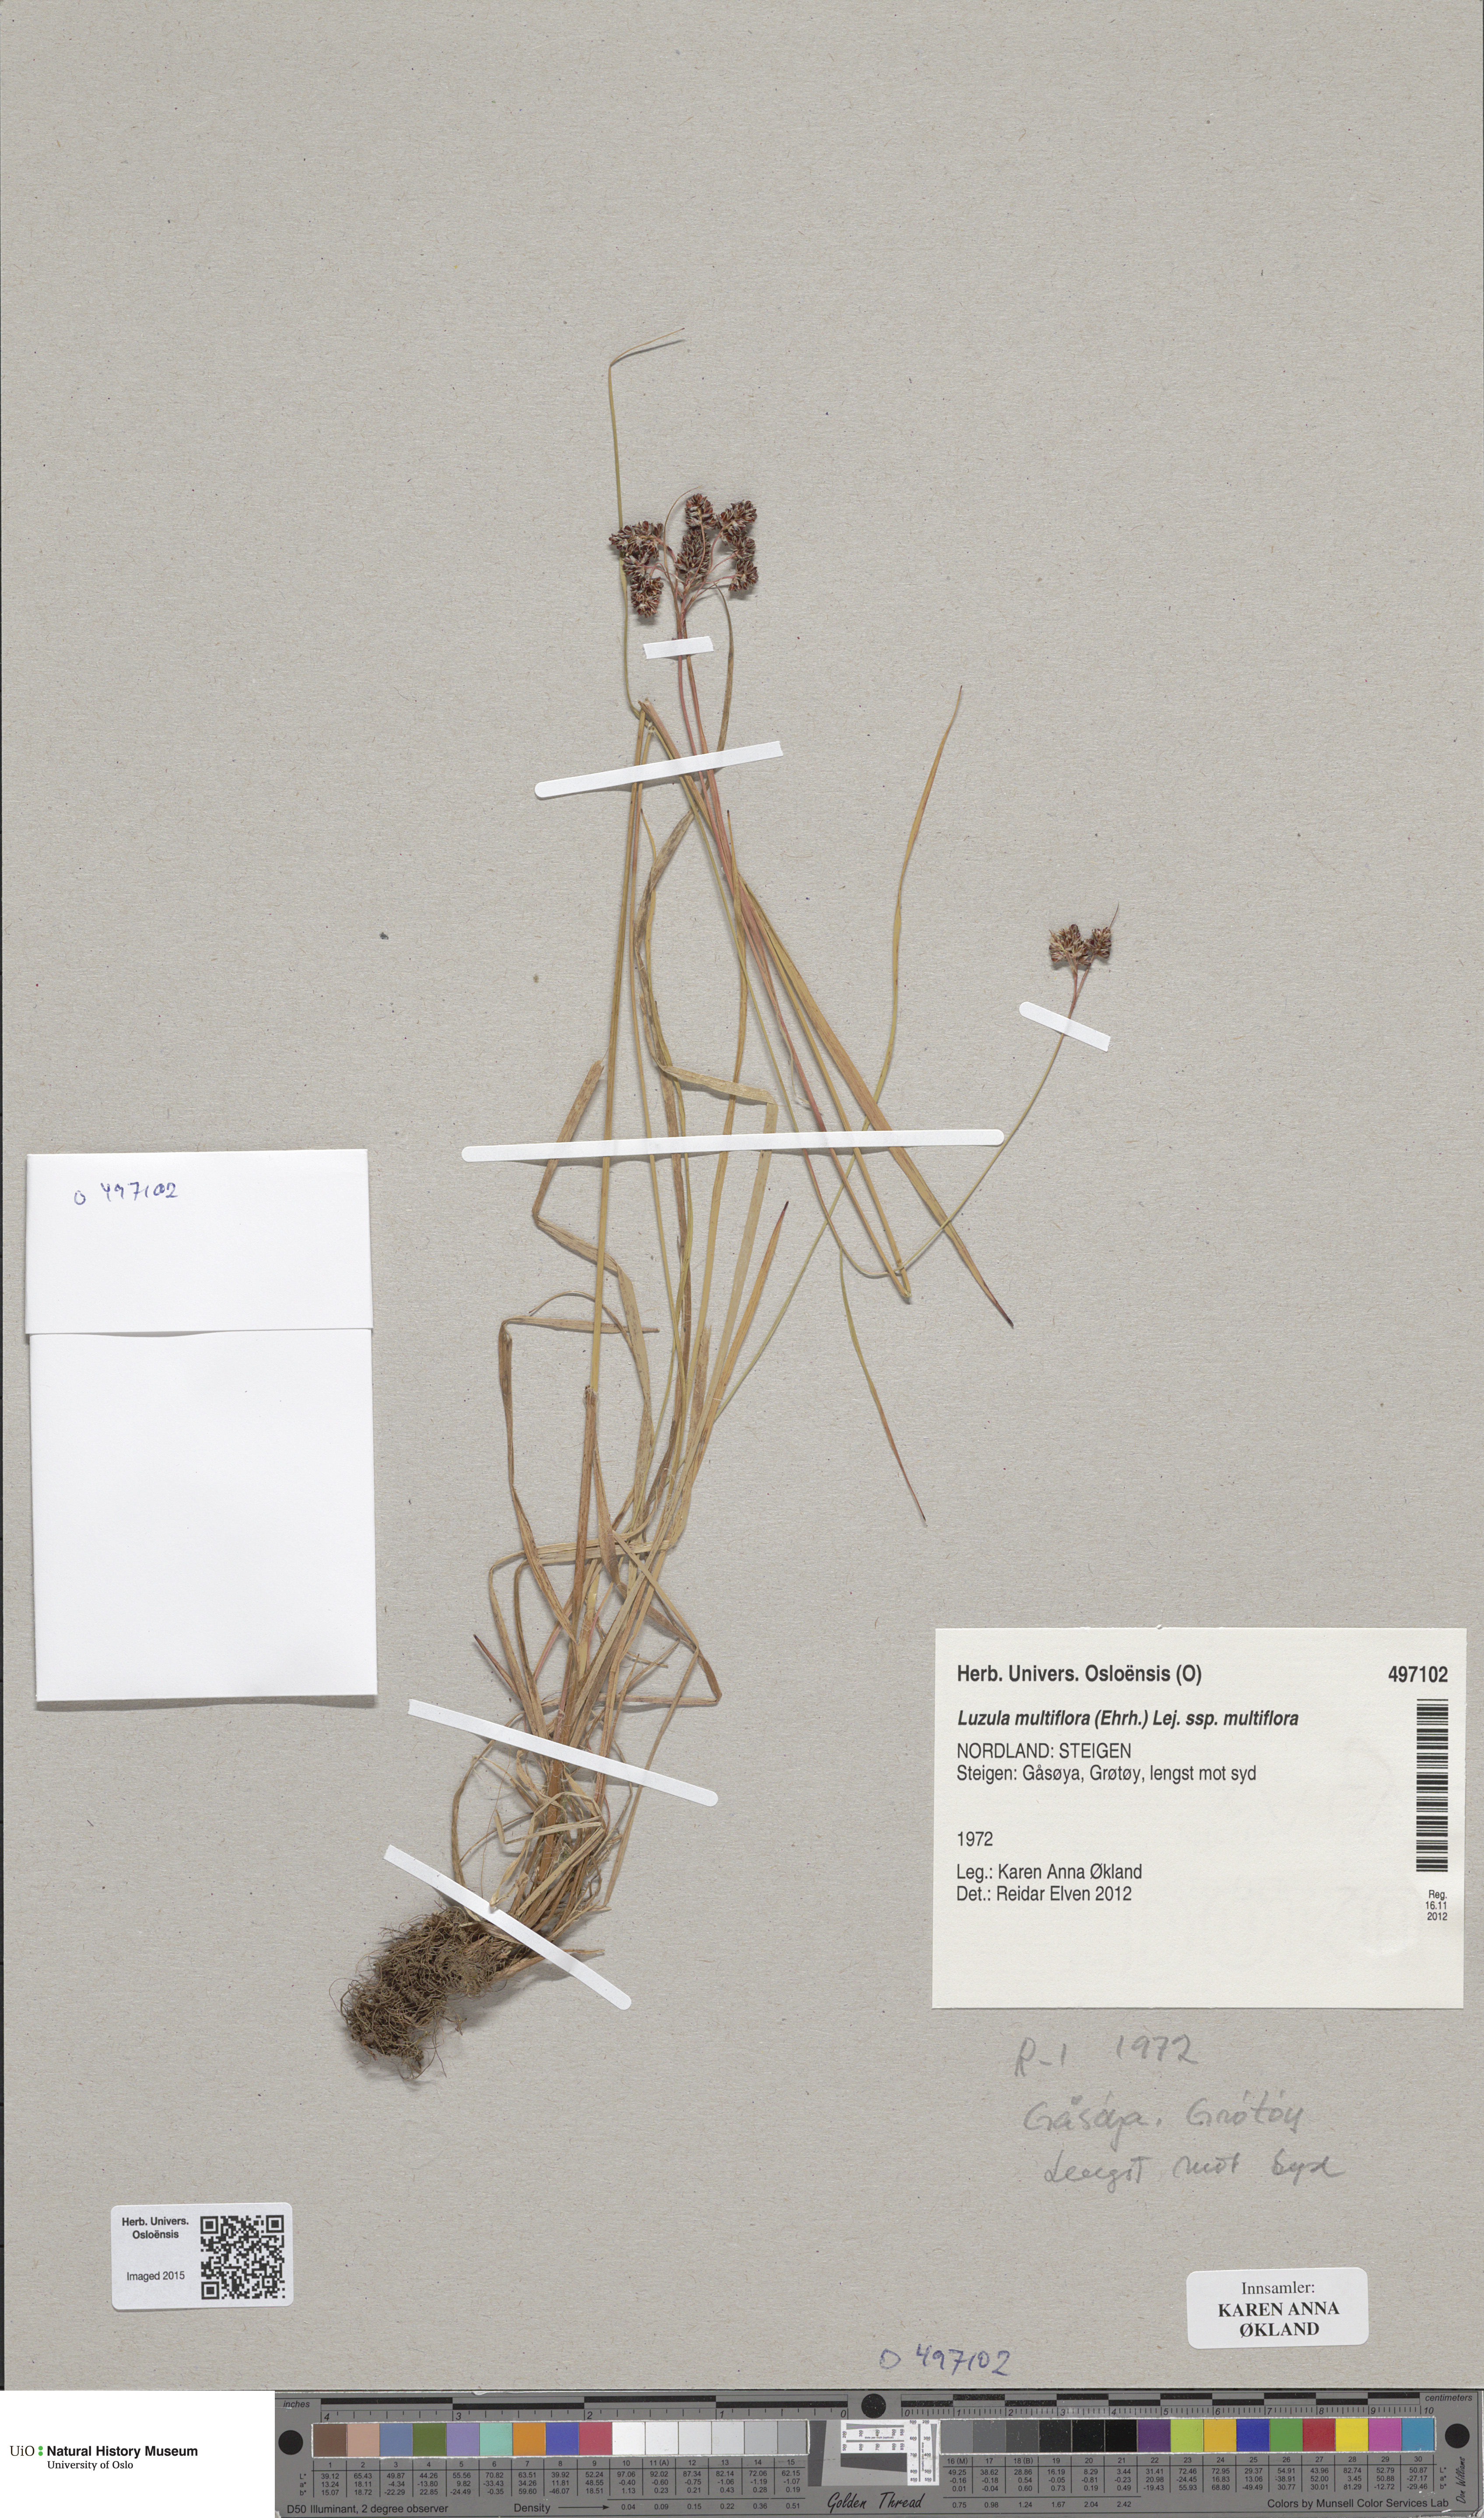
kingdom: Plantae
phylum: Tracheophyta
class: Liliopsida
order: Poales
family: Juncaceae
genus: Luzula
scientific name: Luzula multiflora
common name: Heath wood-rush
